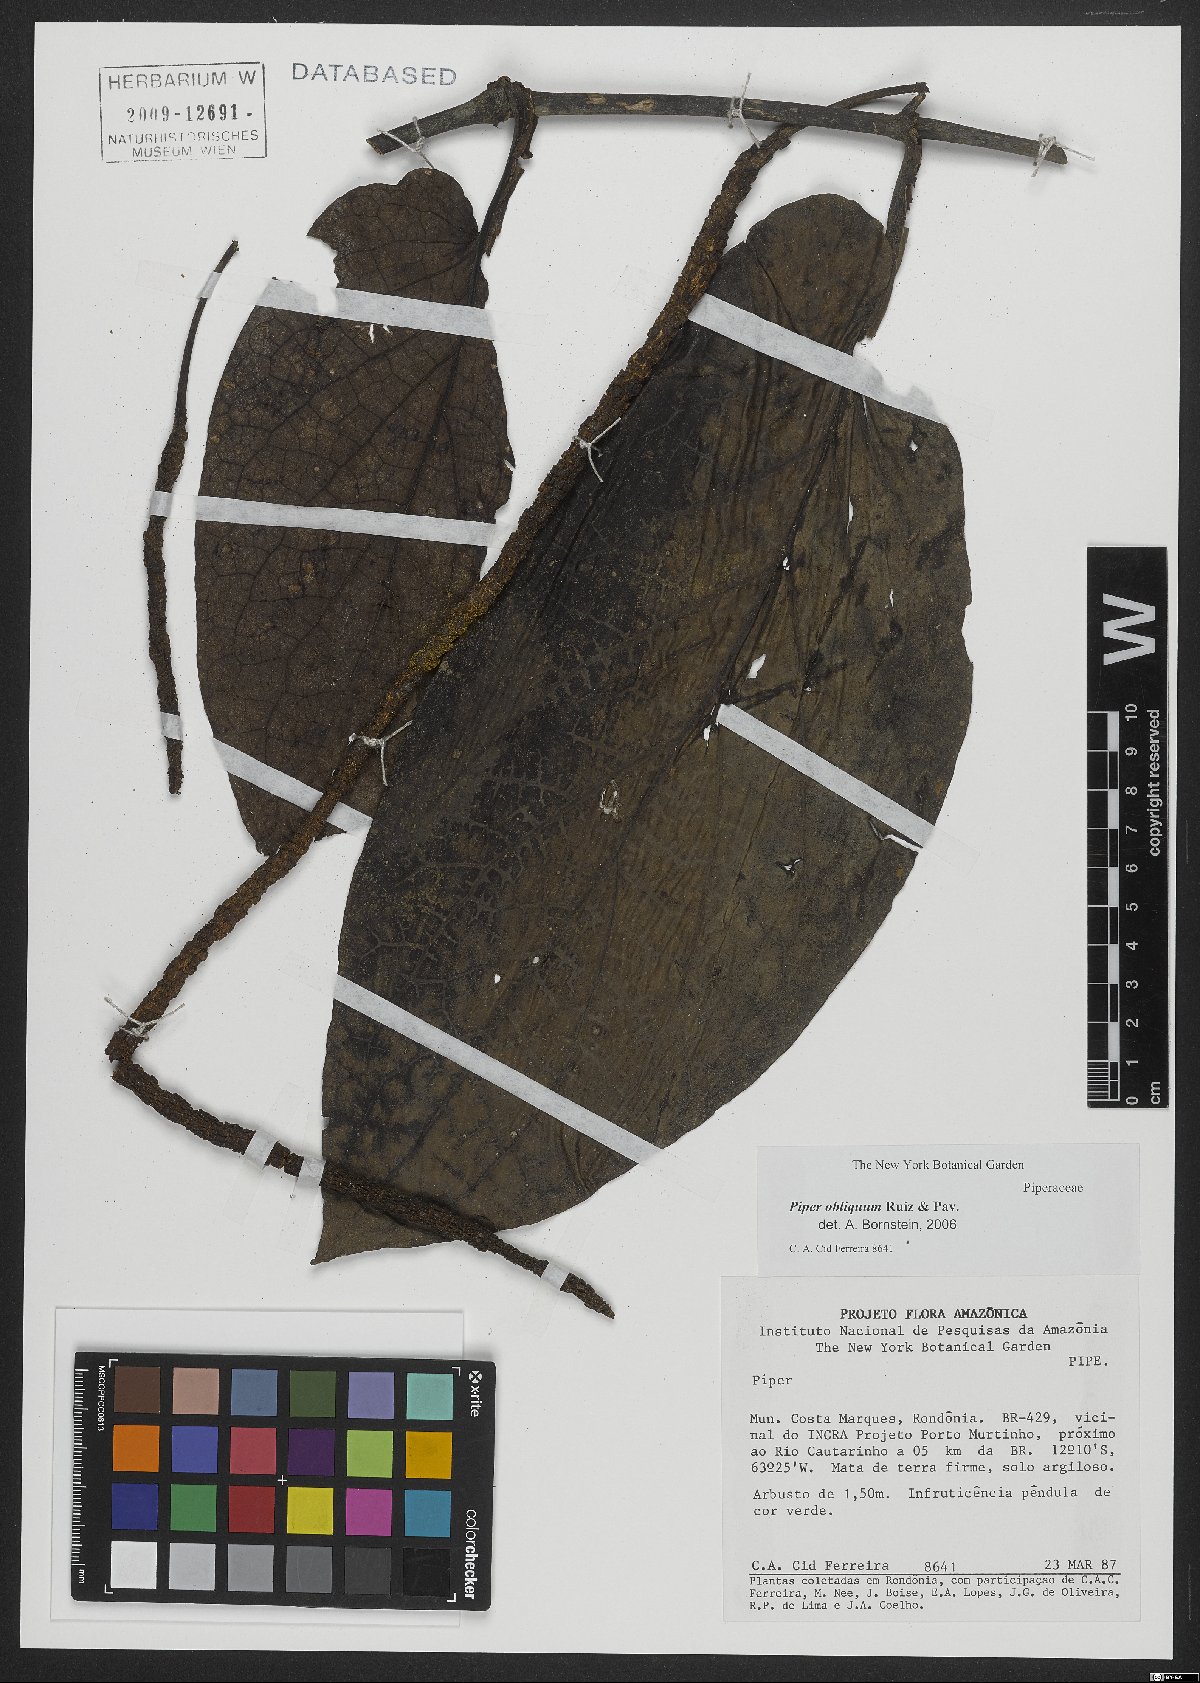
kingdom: Plantae
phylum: Tracheophyta
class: Magnoliopsida
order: Piperales
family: Piperaceae
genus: Piper
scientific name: Piper obliquum
